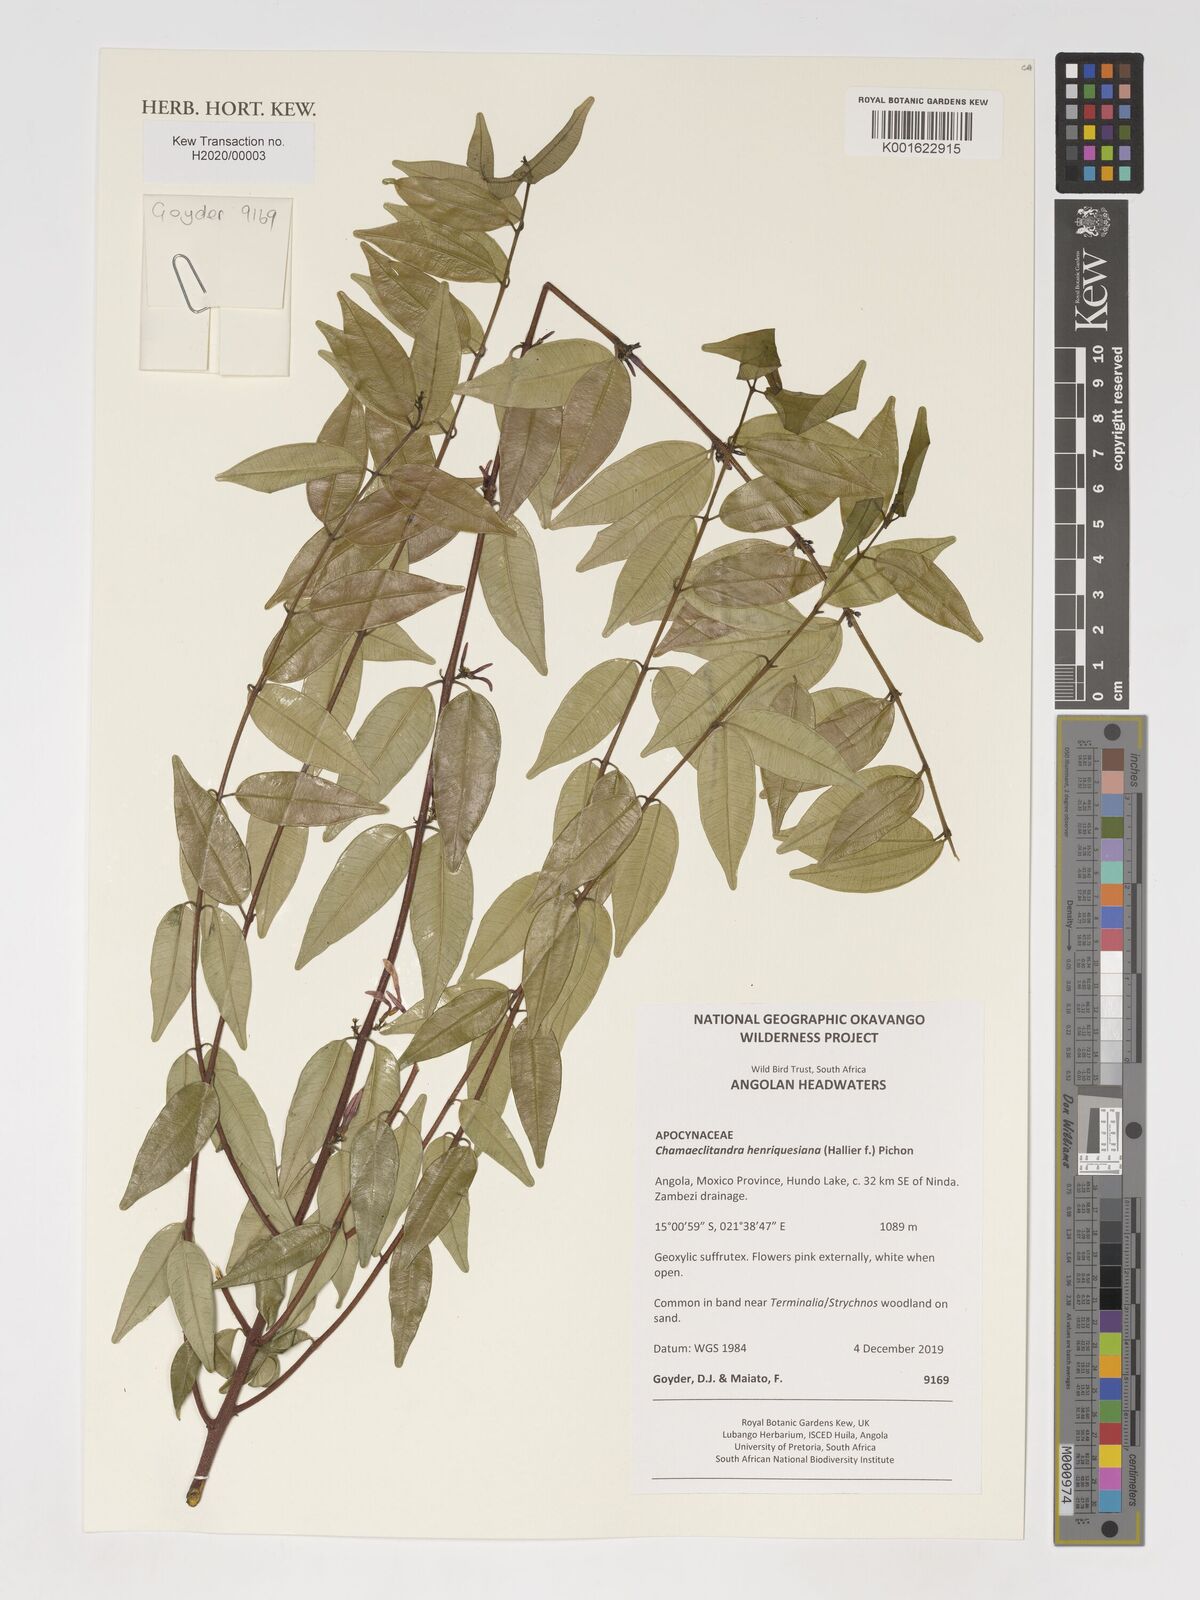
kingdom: Plantae
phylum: Tracheophyta
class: Magnoliopsida
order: Gentianales
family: Apocynaceae
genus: Chamaeclitandra
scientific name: Chamaeclitandra henriquesiana
